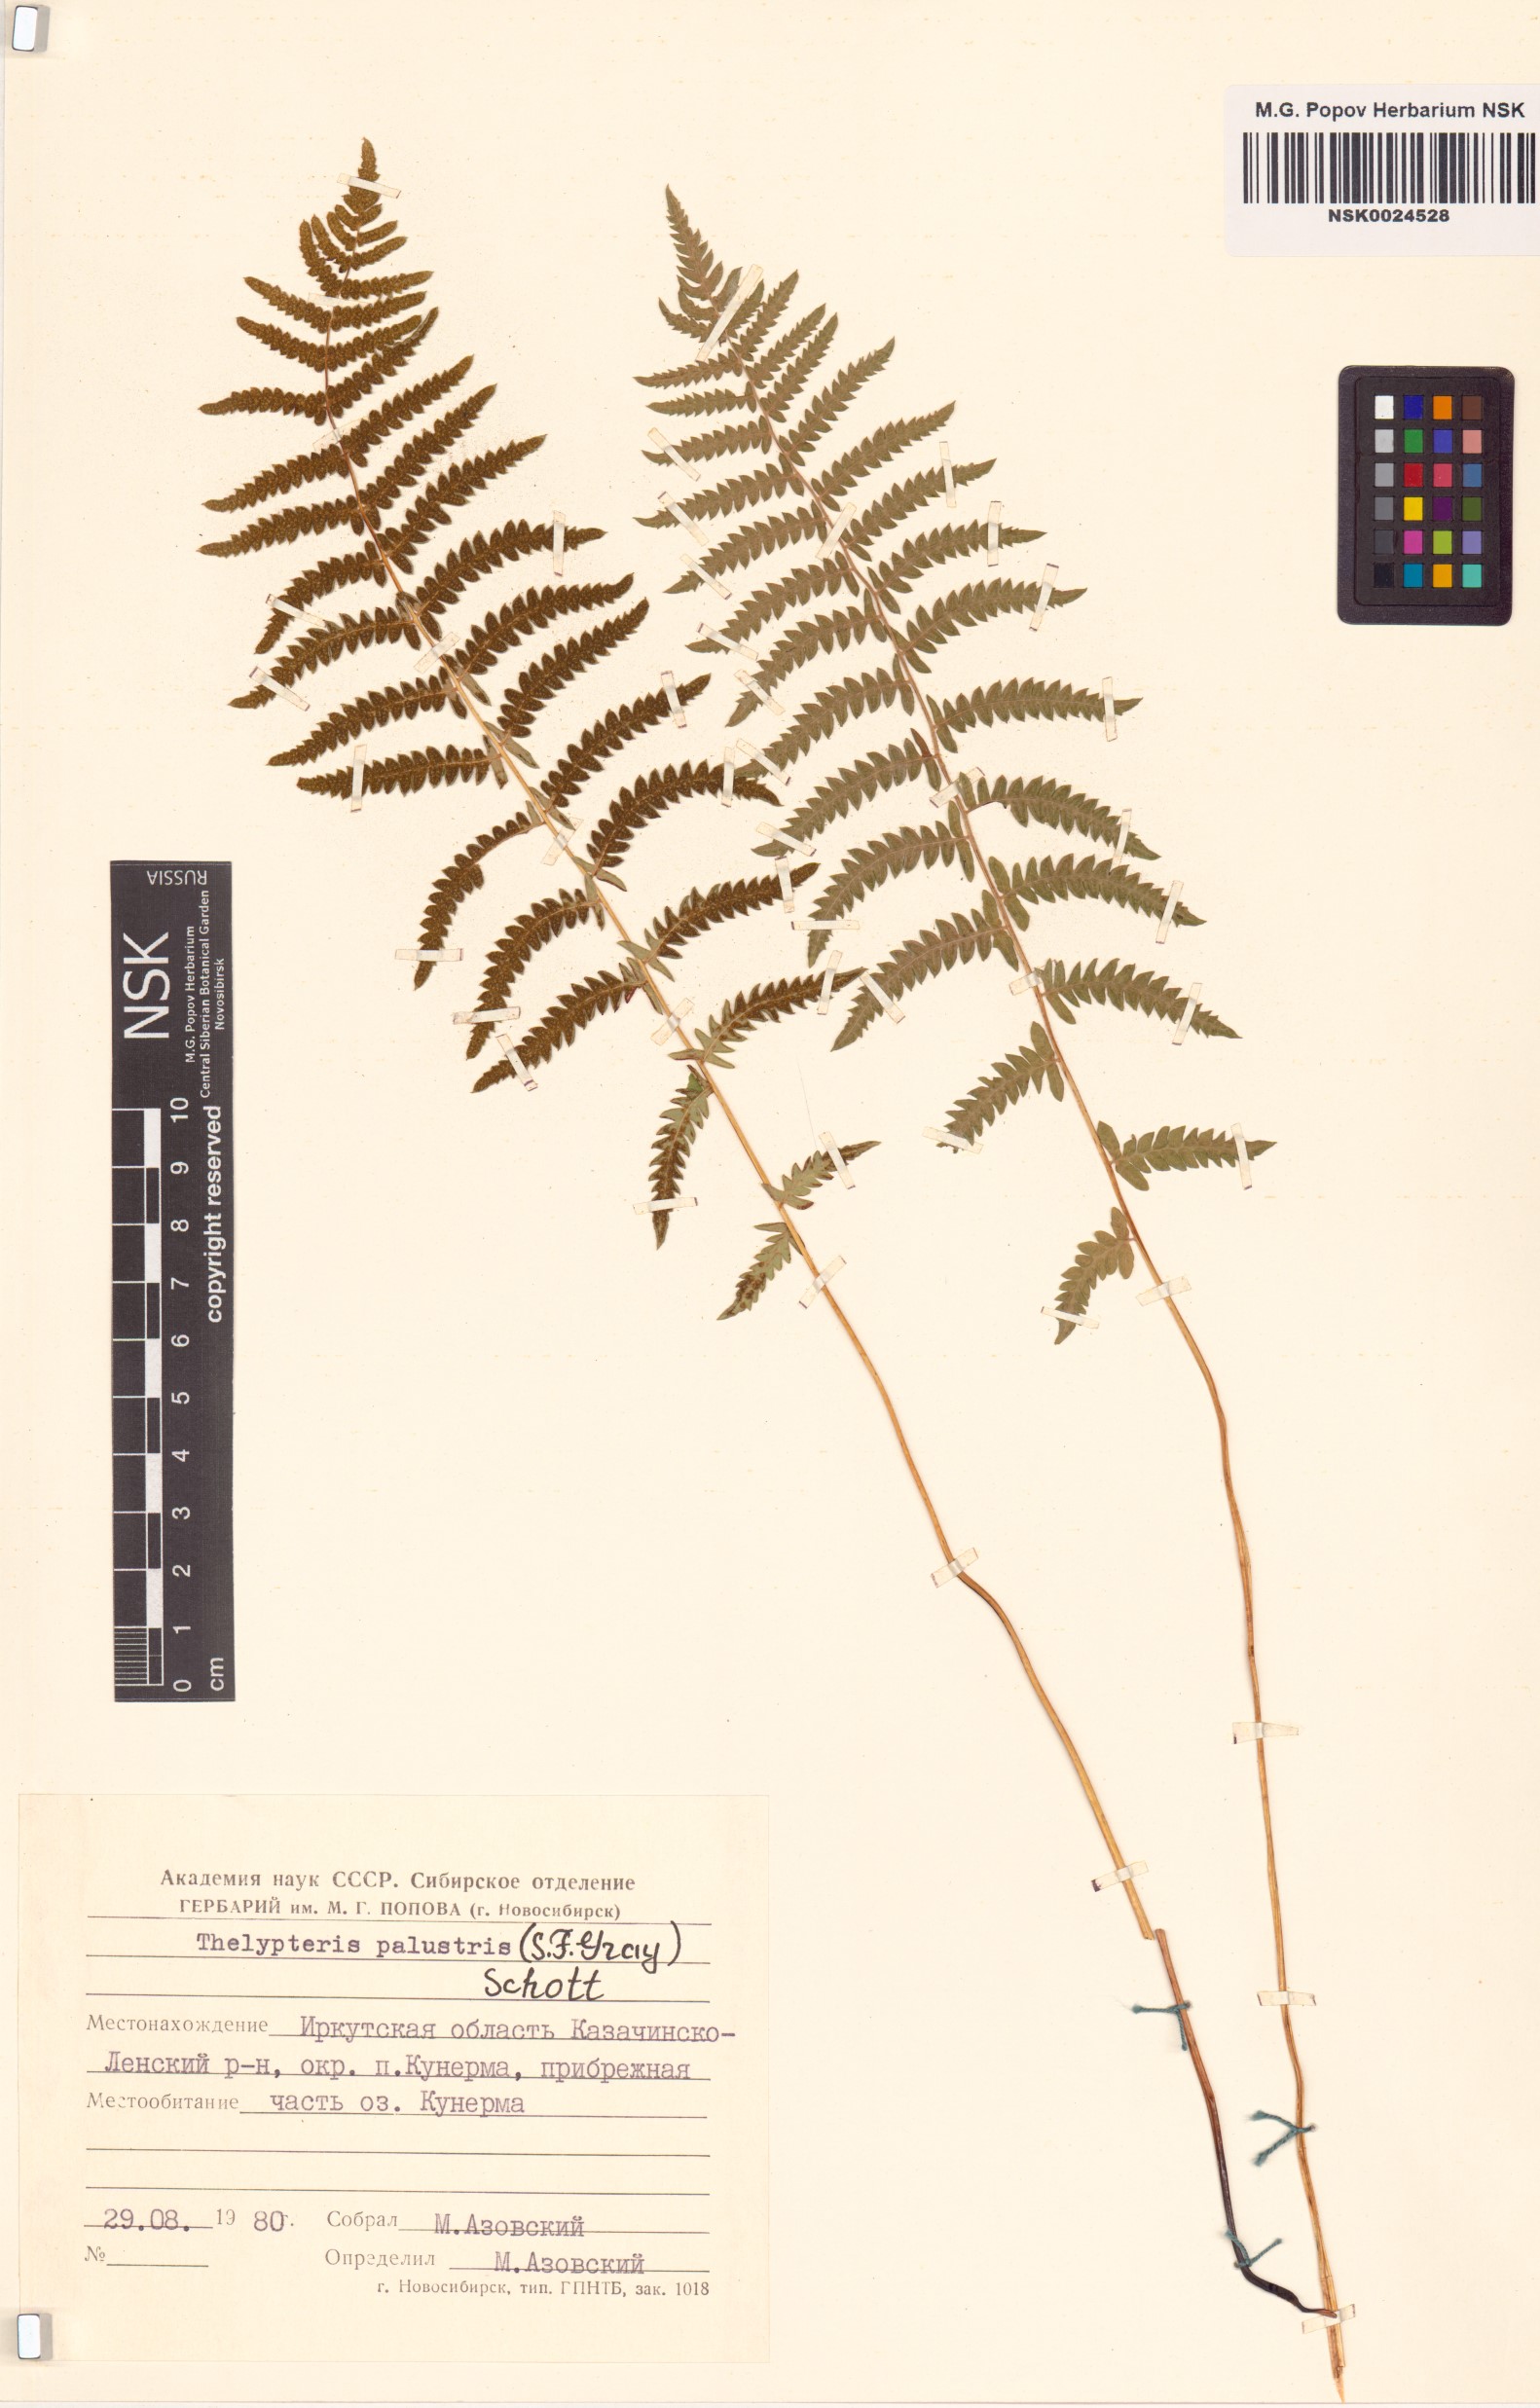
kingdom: Plantae
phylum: Tracheophyta
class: Polypodiopsida
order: Polypodiales
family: Thelypteridaceae
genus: Thelypteris
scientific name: Thelypteris palustris
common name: Marsh fern
